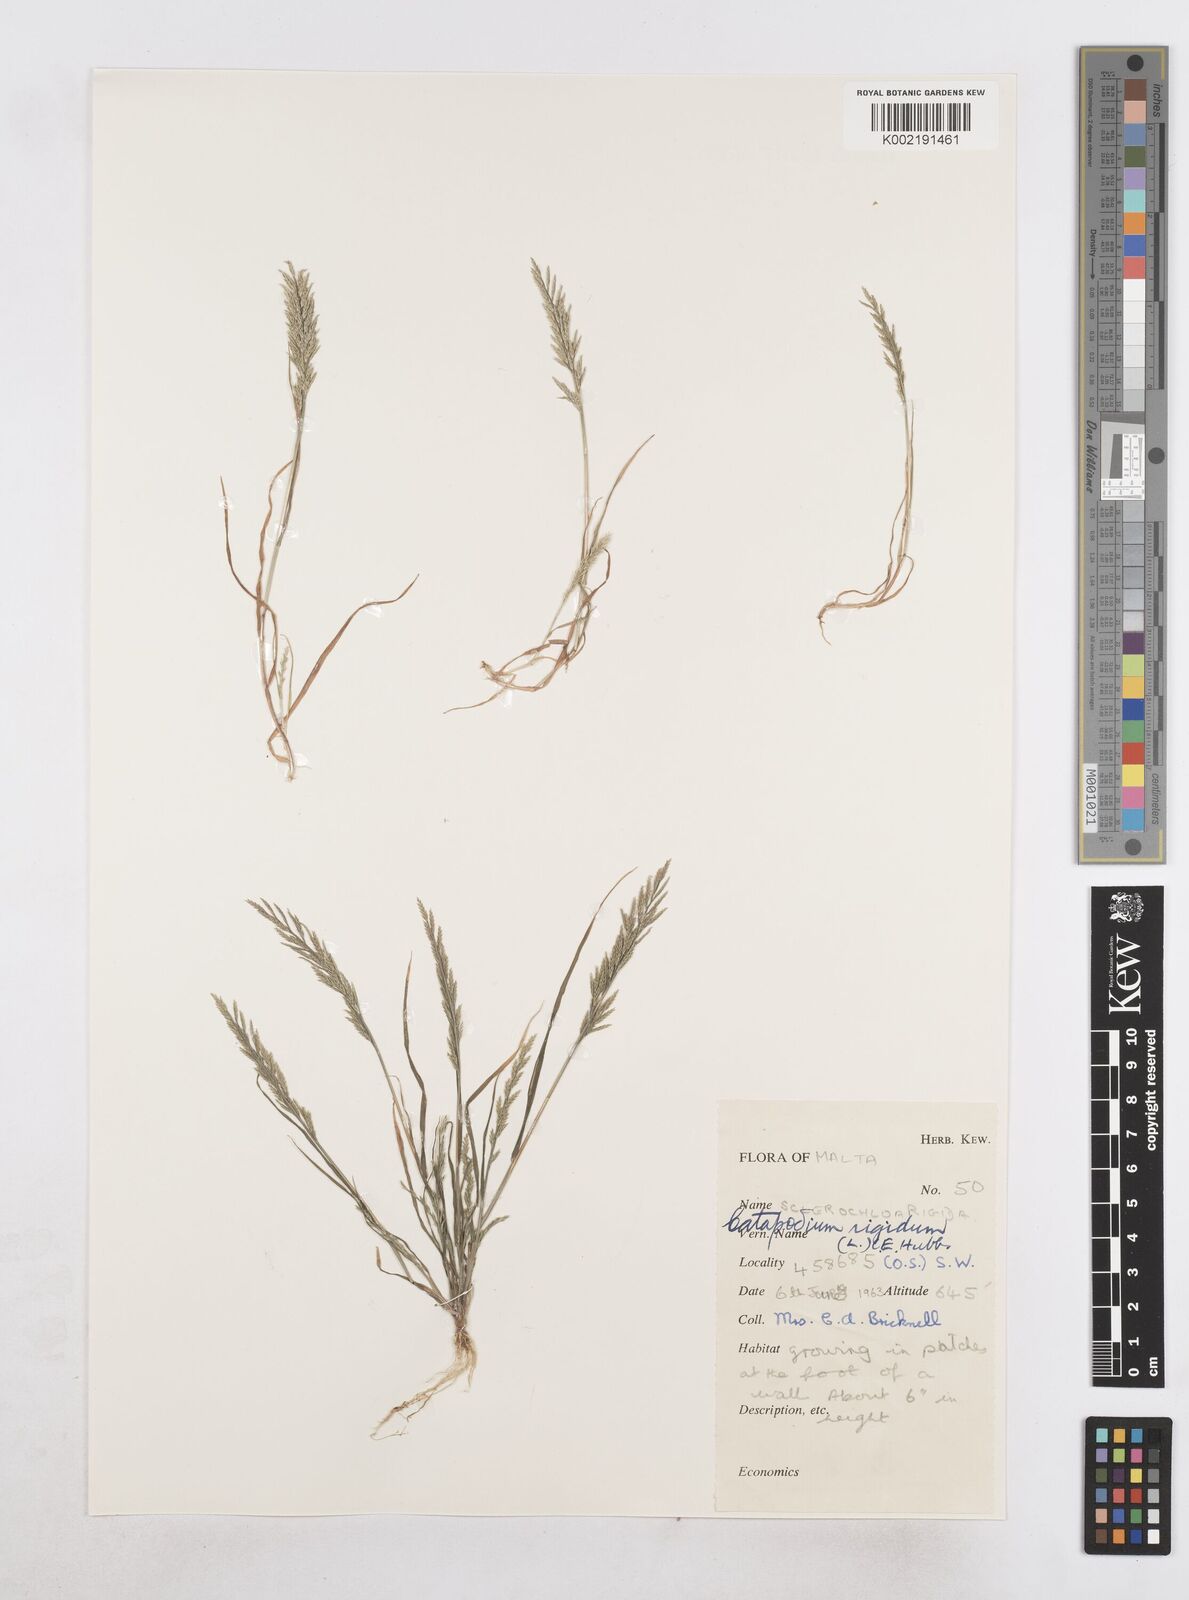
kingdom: Plantae
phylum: Tracheophyta
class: Liliopsida
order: Poales
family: Poaceae
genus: Catapodium
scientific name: Catapodium rigidum
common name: Fern-grass
